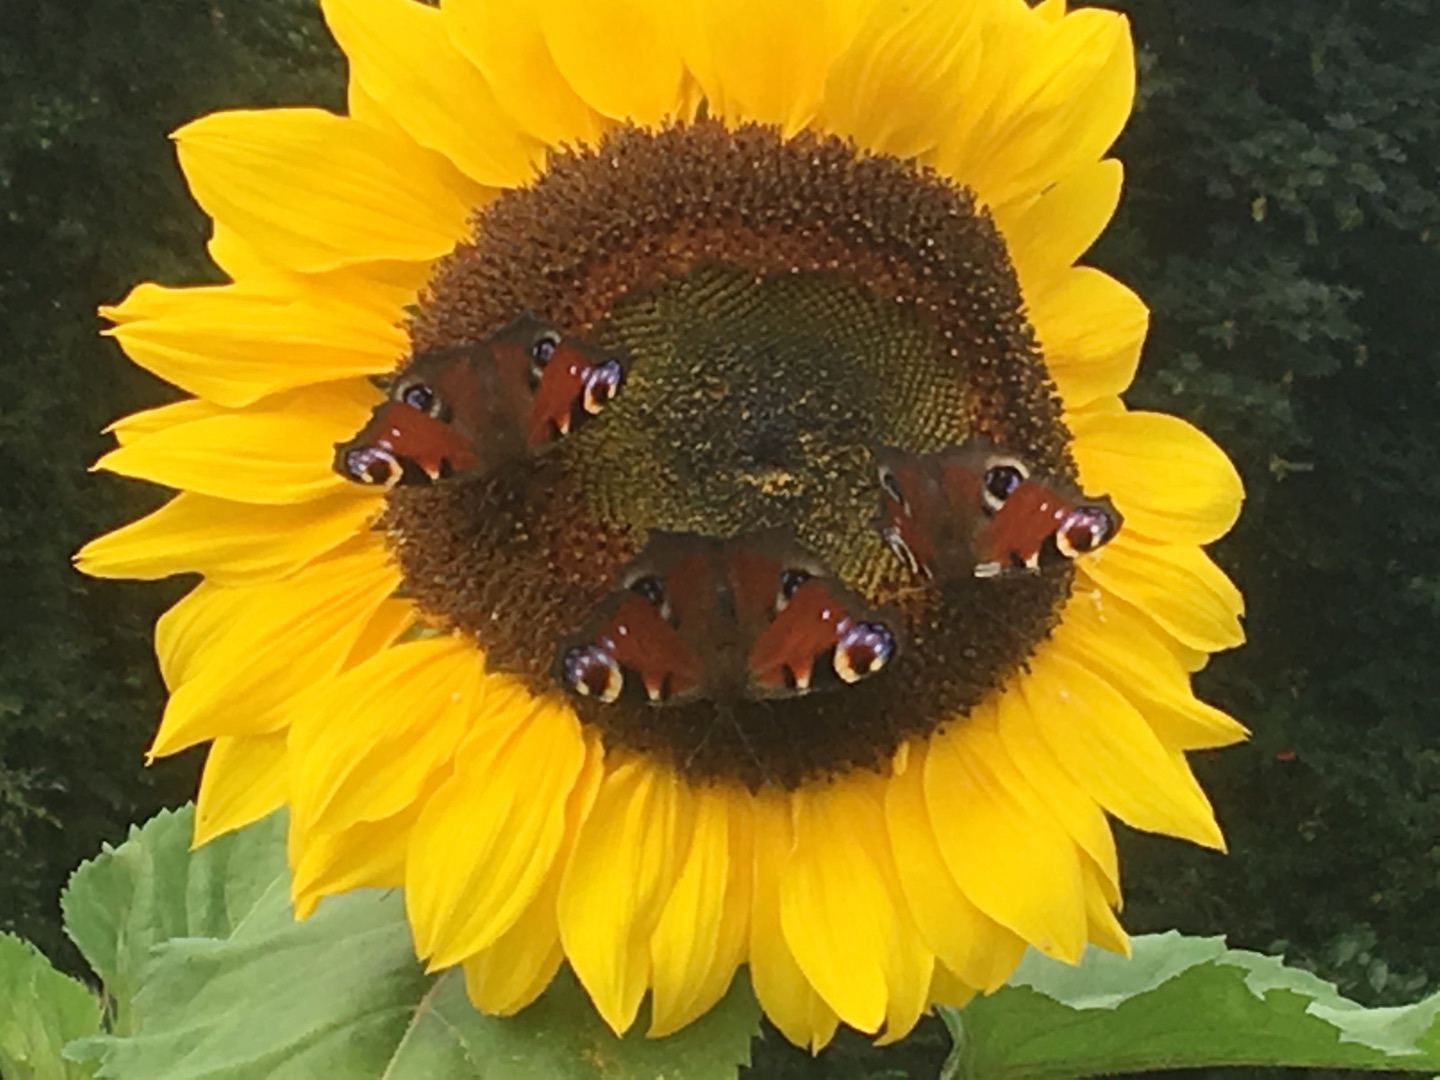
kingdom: Animalia
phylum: Arthropoda
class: Insecta
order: Lepidoptera
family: Nymphalidae
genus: Vanessa
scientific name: Vanessa cardui
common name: Tidselsommerfugl
